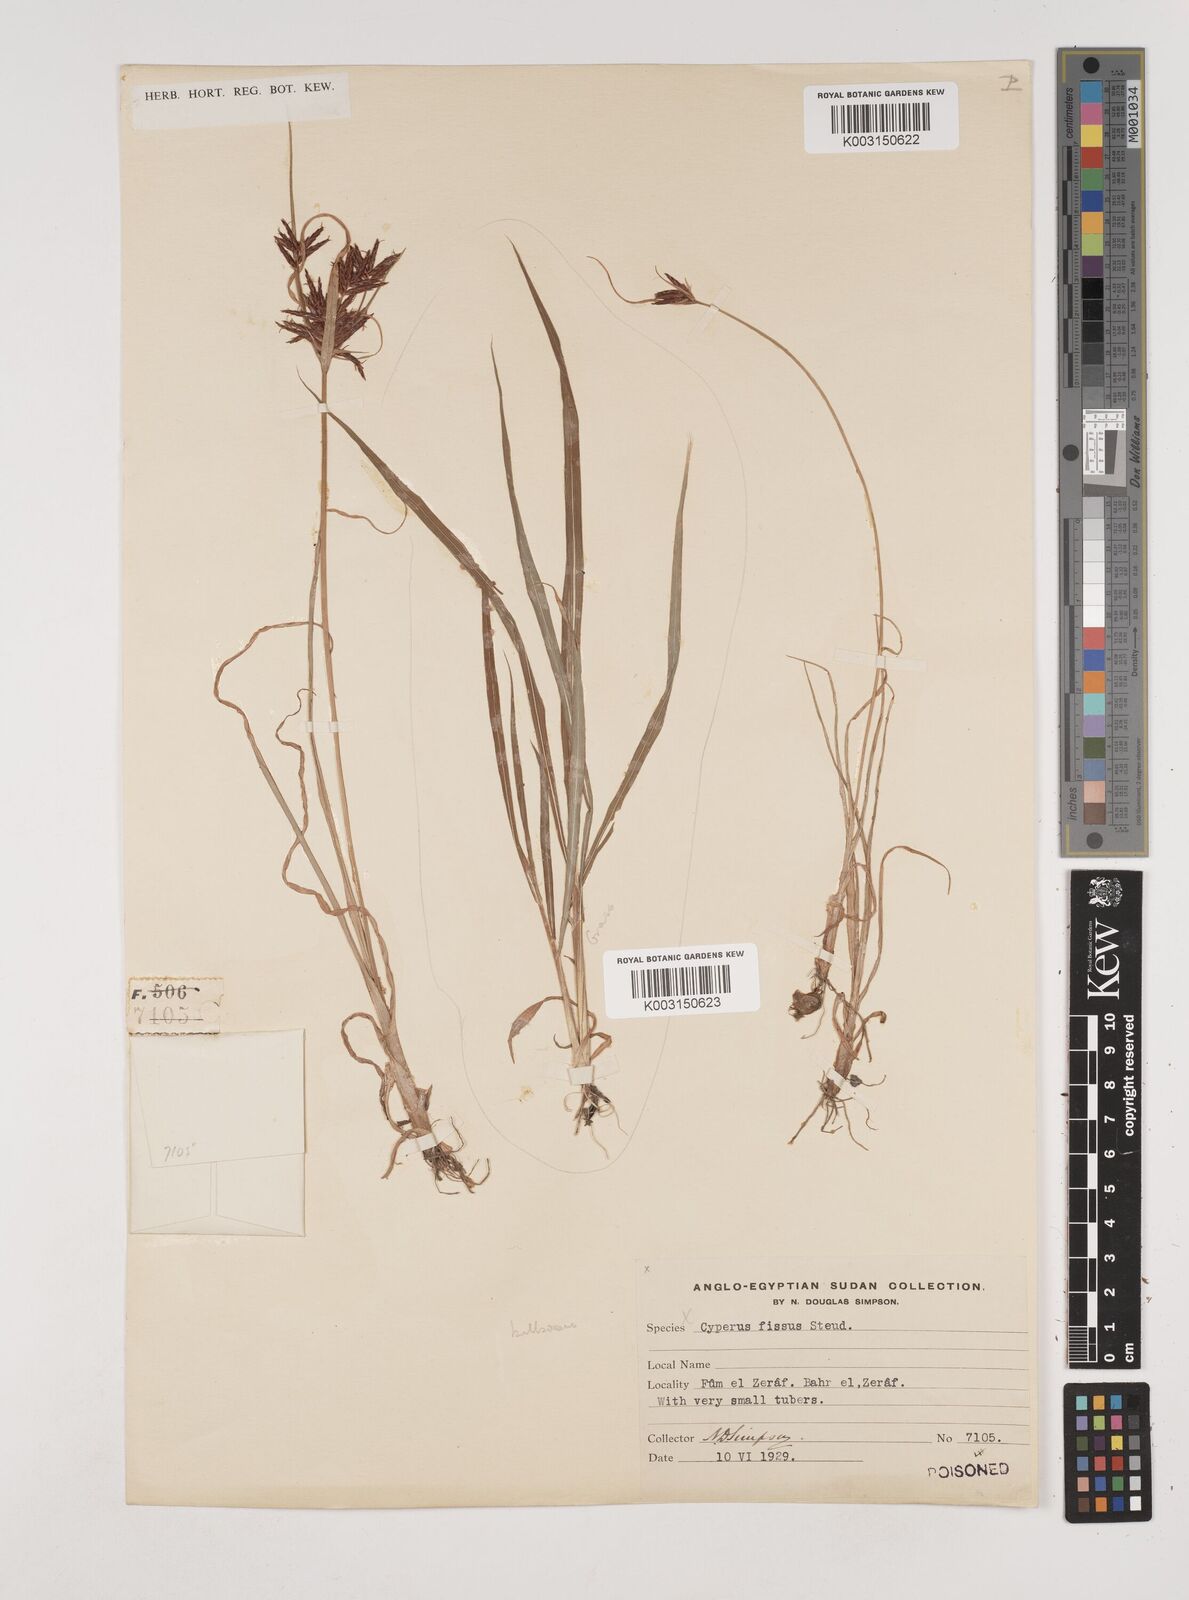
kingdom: Plantae
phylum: Tracheophyta
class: Liliopsida
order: Poales
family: Cyperaceae
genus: Cyperus
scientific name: Cyperus bulbosus
